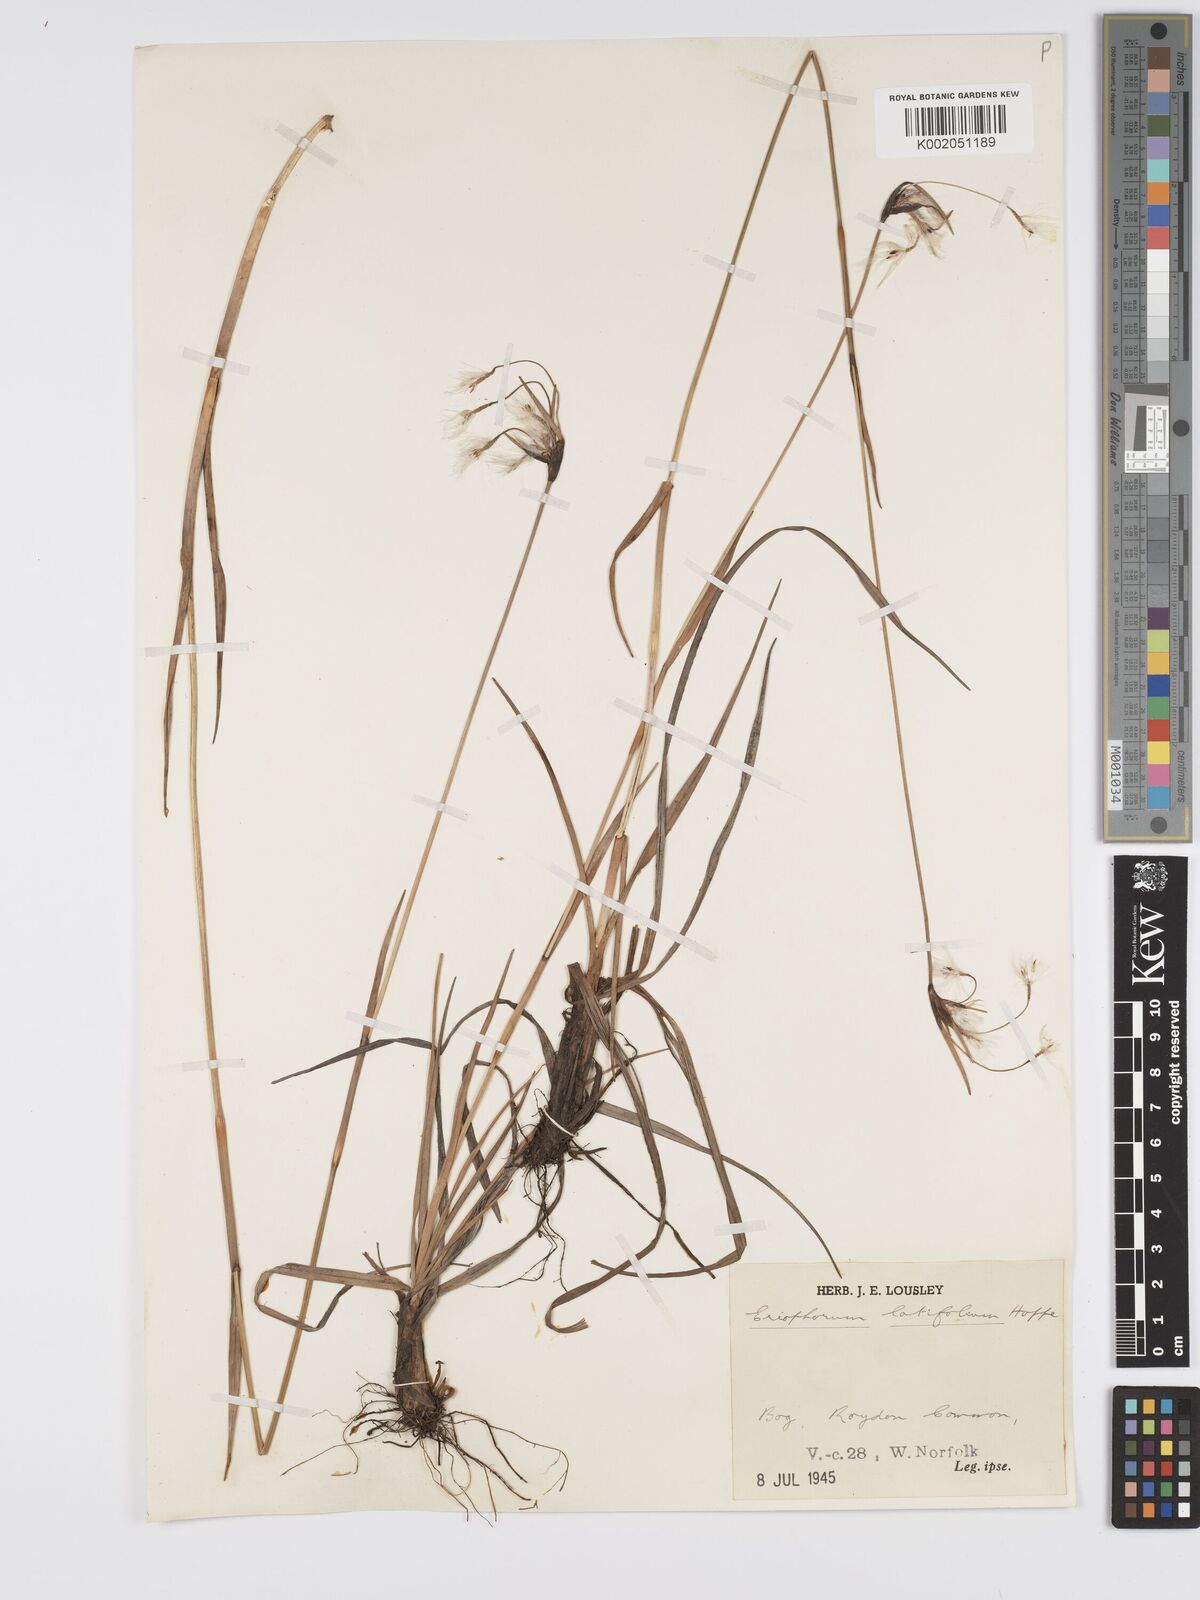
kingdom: Plantae
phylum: Tracheophyta
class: Liliopsida
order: Poales
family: Cyperaceae
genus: Eriophorum
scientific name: Eriophorum latifolium
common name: Broad-leaved cottongrass
